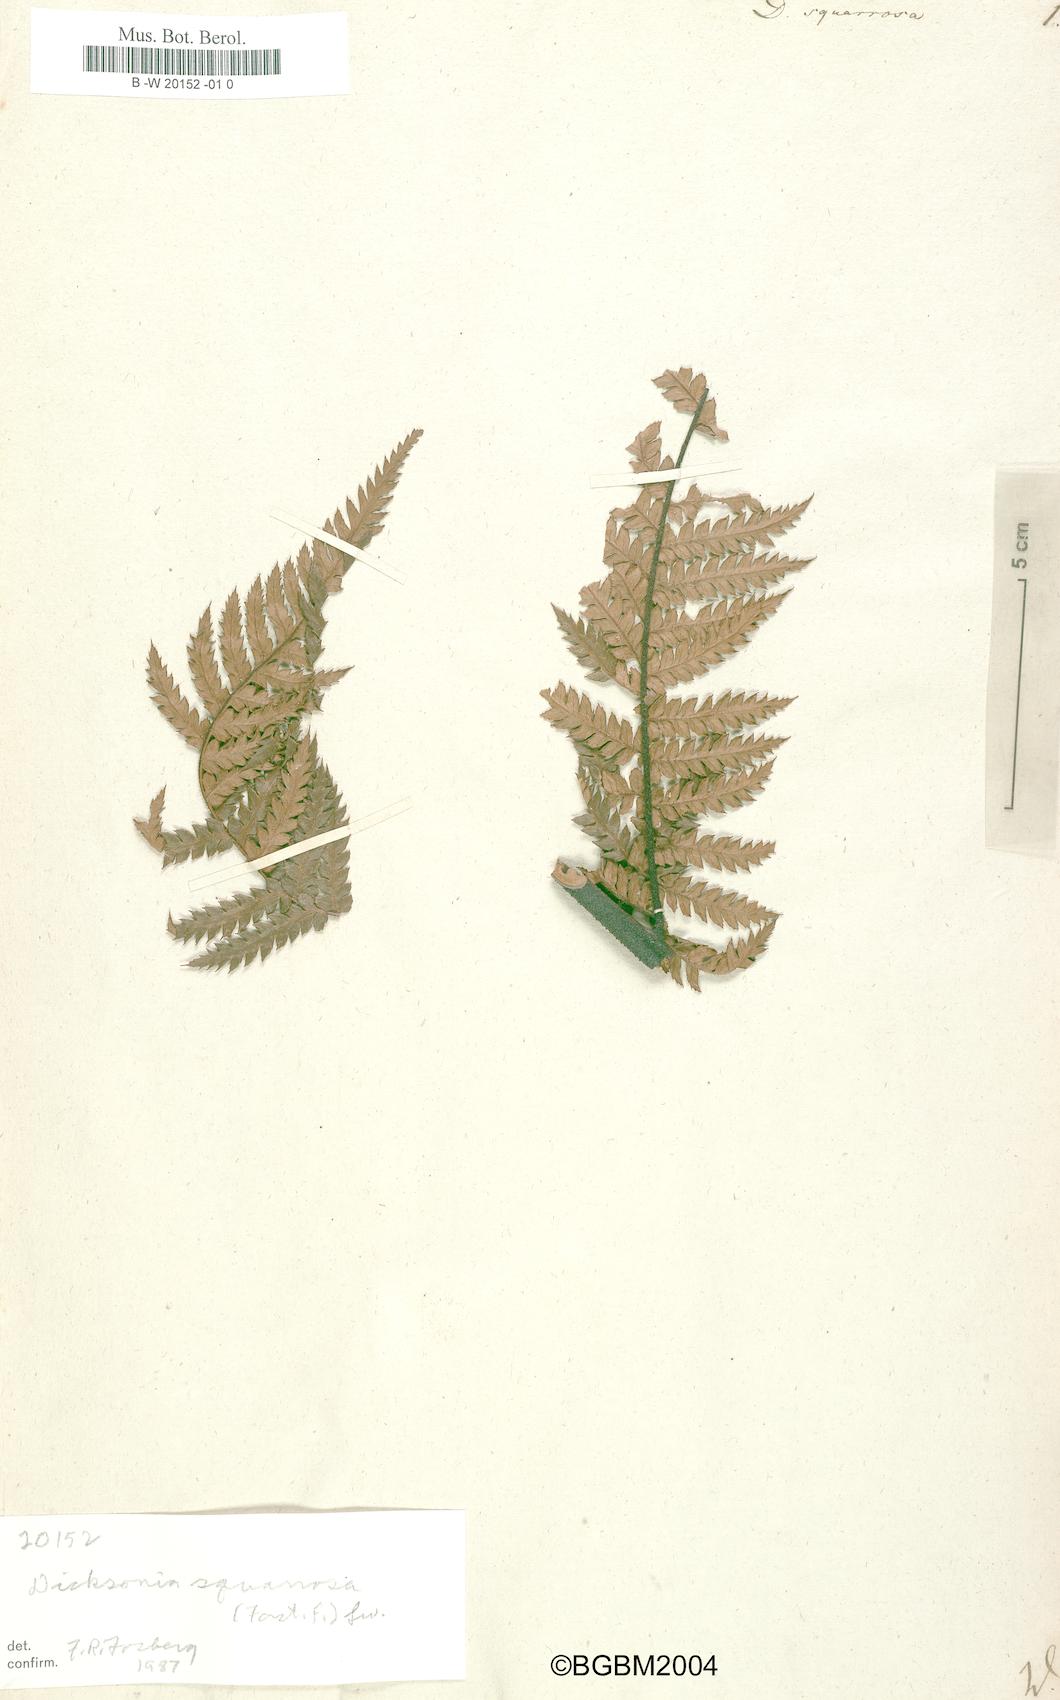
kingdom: Plantae
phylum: Tracheophyta
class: Polypodiopsida
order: Cyatheales
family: Dicksoniaceae
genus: Dicksonia
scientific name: Dicksonia squarrosa
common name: Hard treefern
